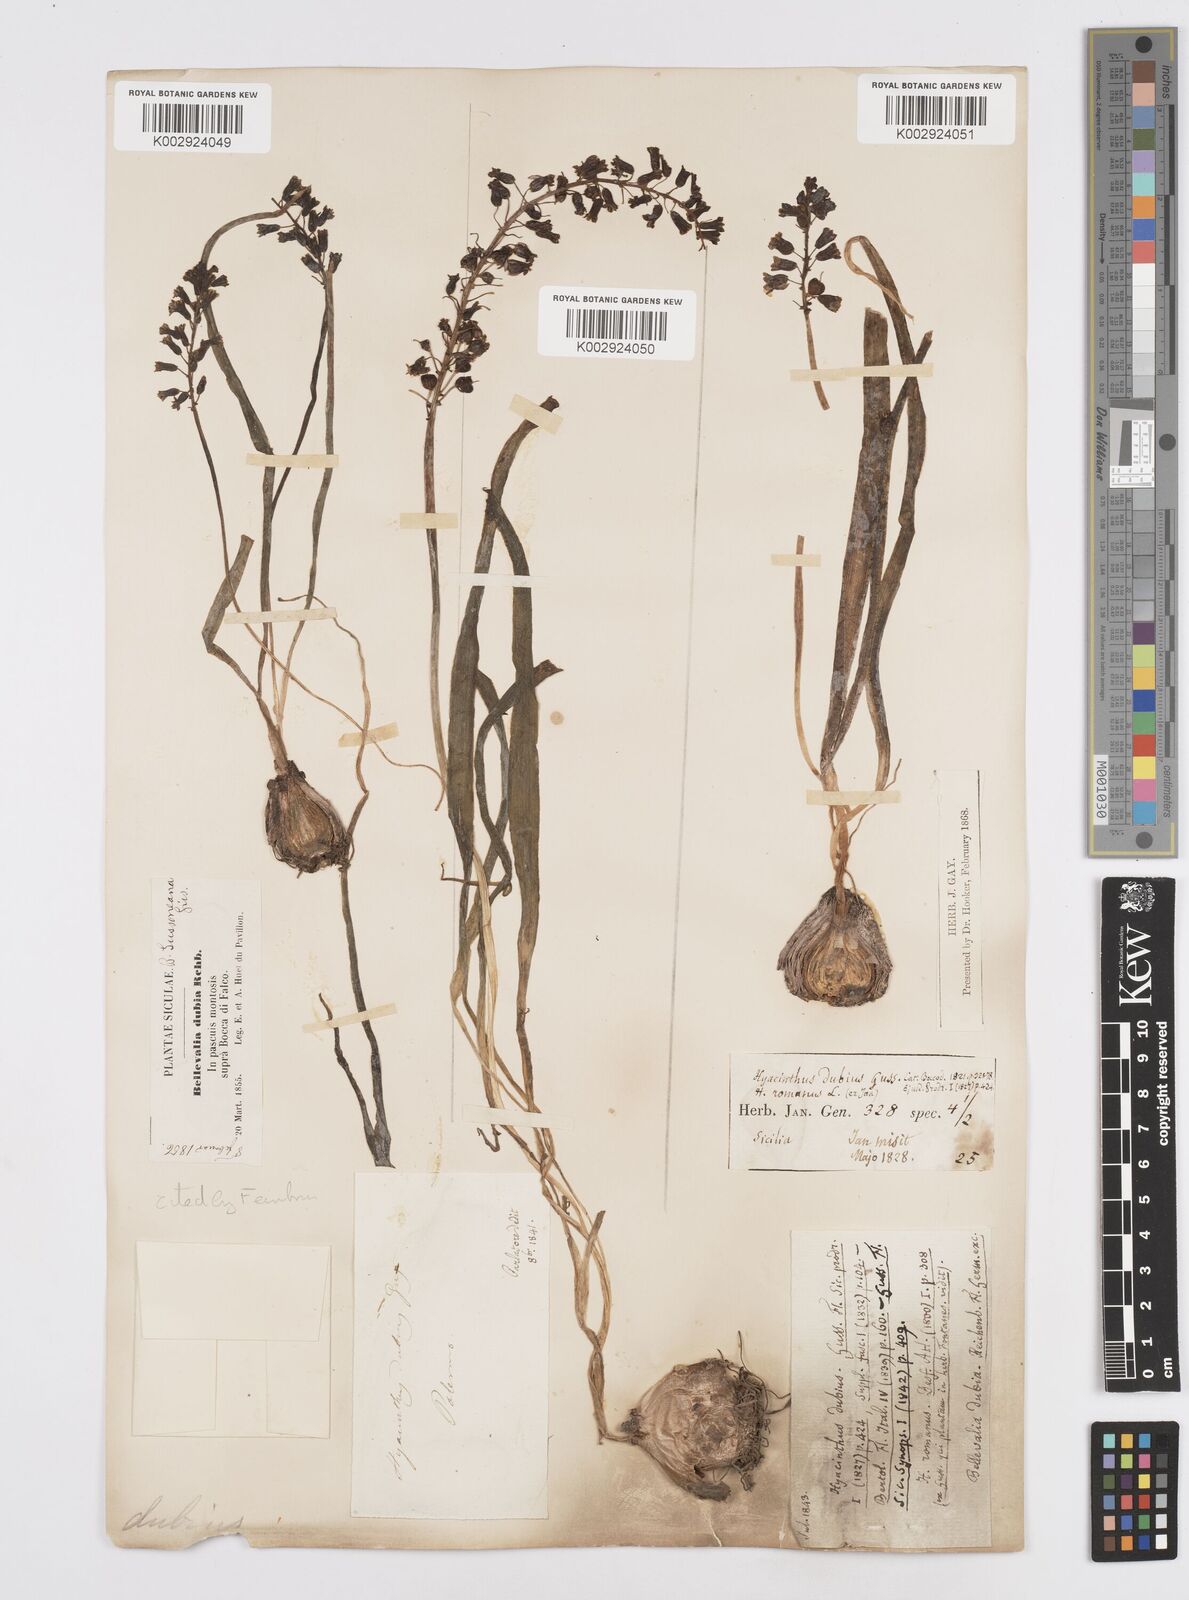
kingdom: Plantae
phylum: Tracheophyta
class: Liliopsida
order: Asparagales
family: Asparagaceae
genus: Bellevalia
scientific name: Bellevalia dubia
